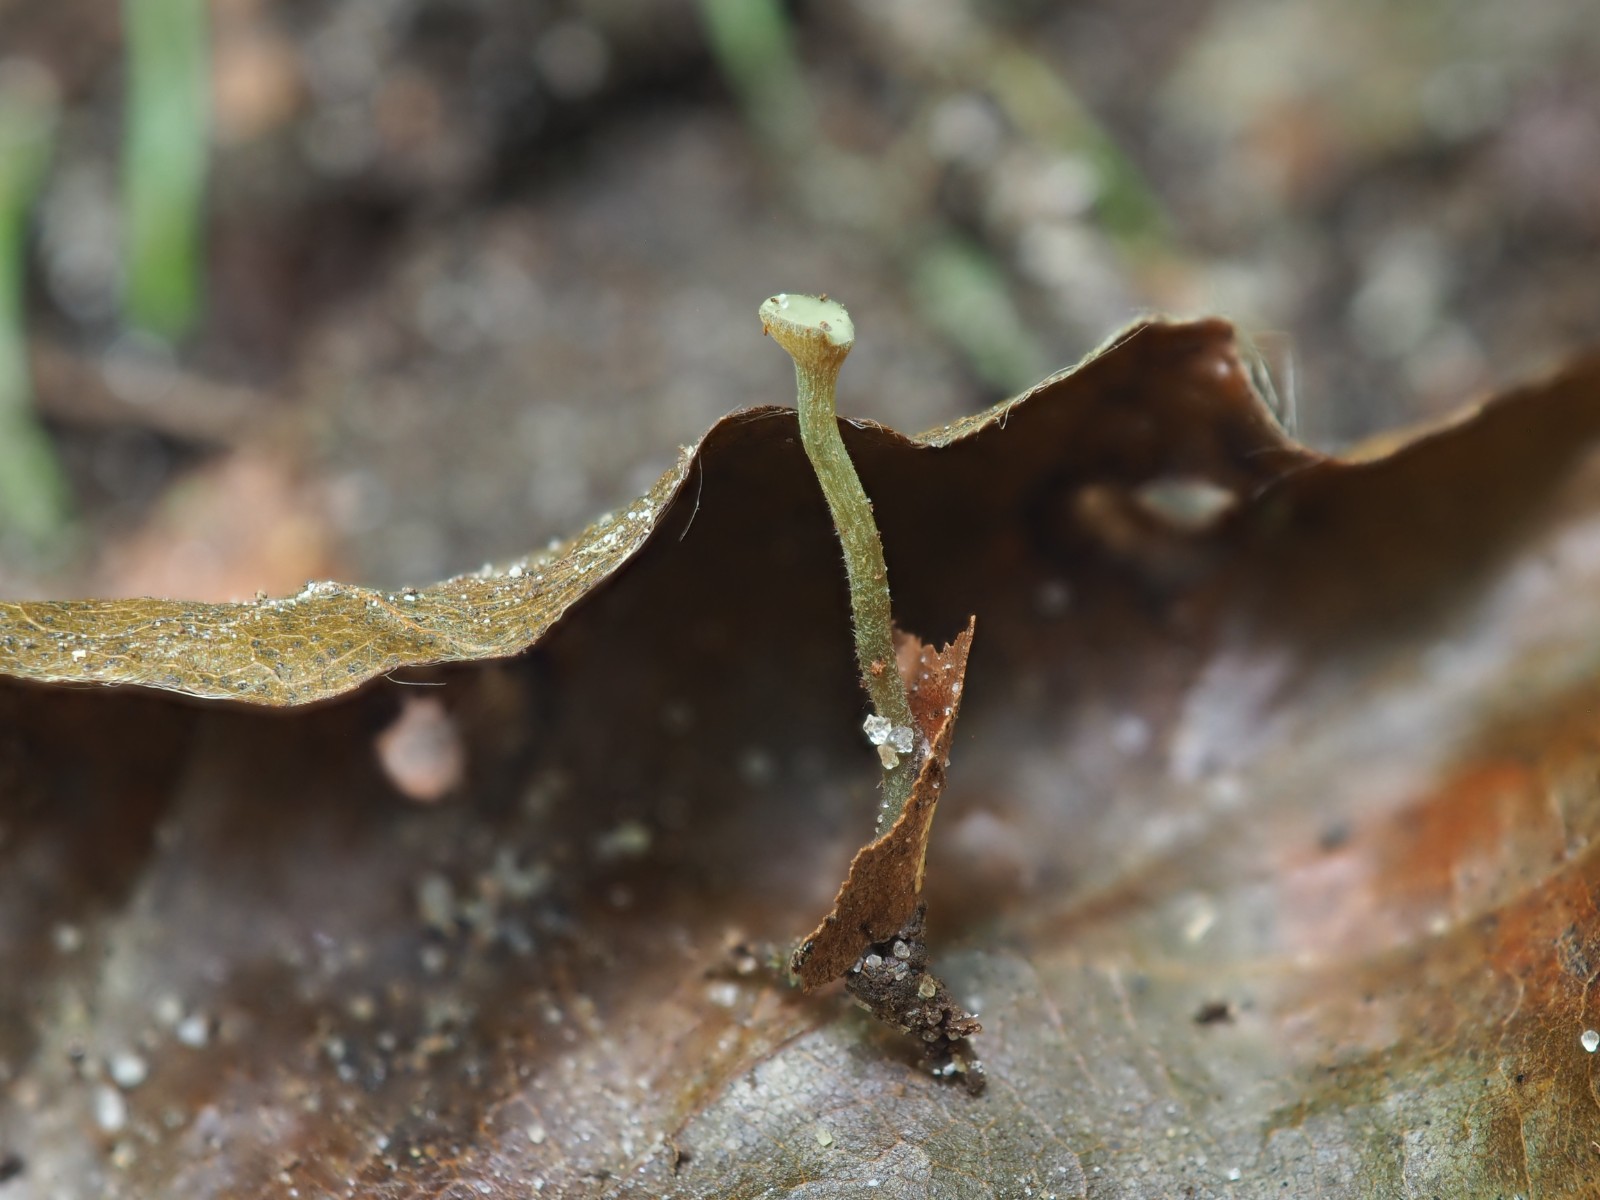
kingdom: Fungi
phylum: Ascomycota
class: Leotiomycetes
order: Helotiales
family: Rutstroemiaceae
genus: Lanzia
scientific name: Lanzia luteovirescens
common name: olivengul brunskive
